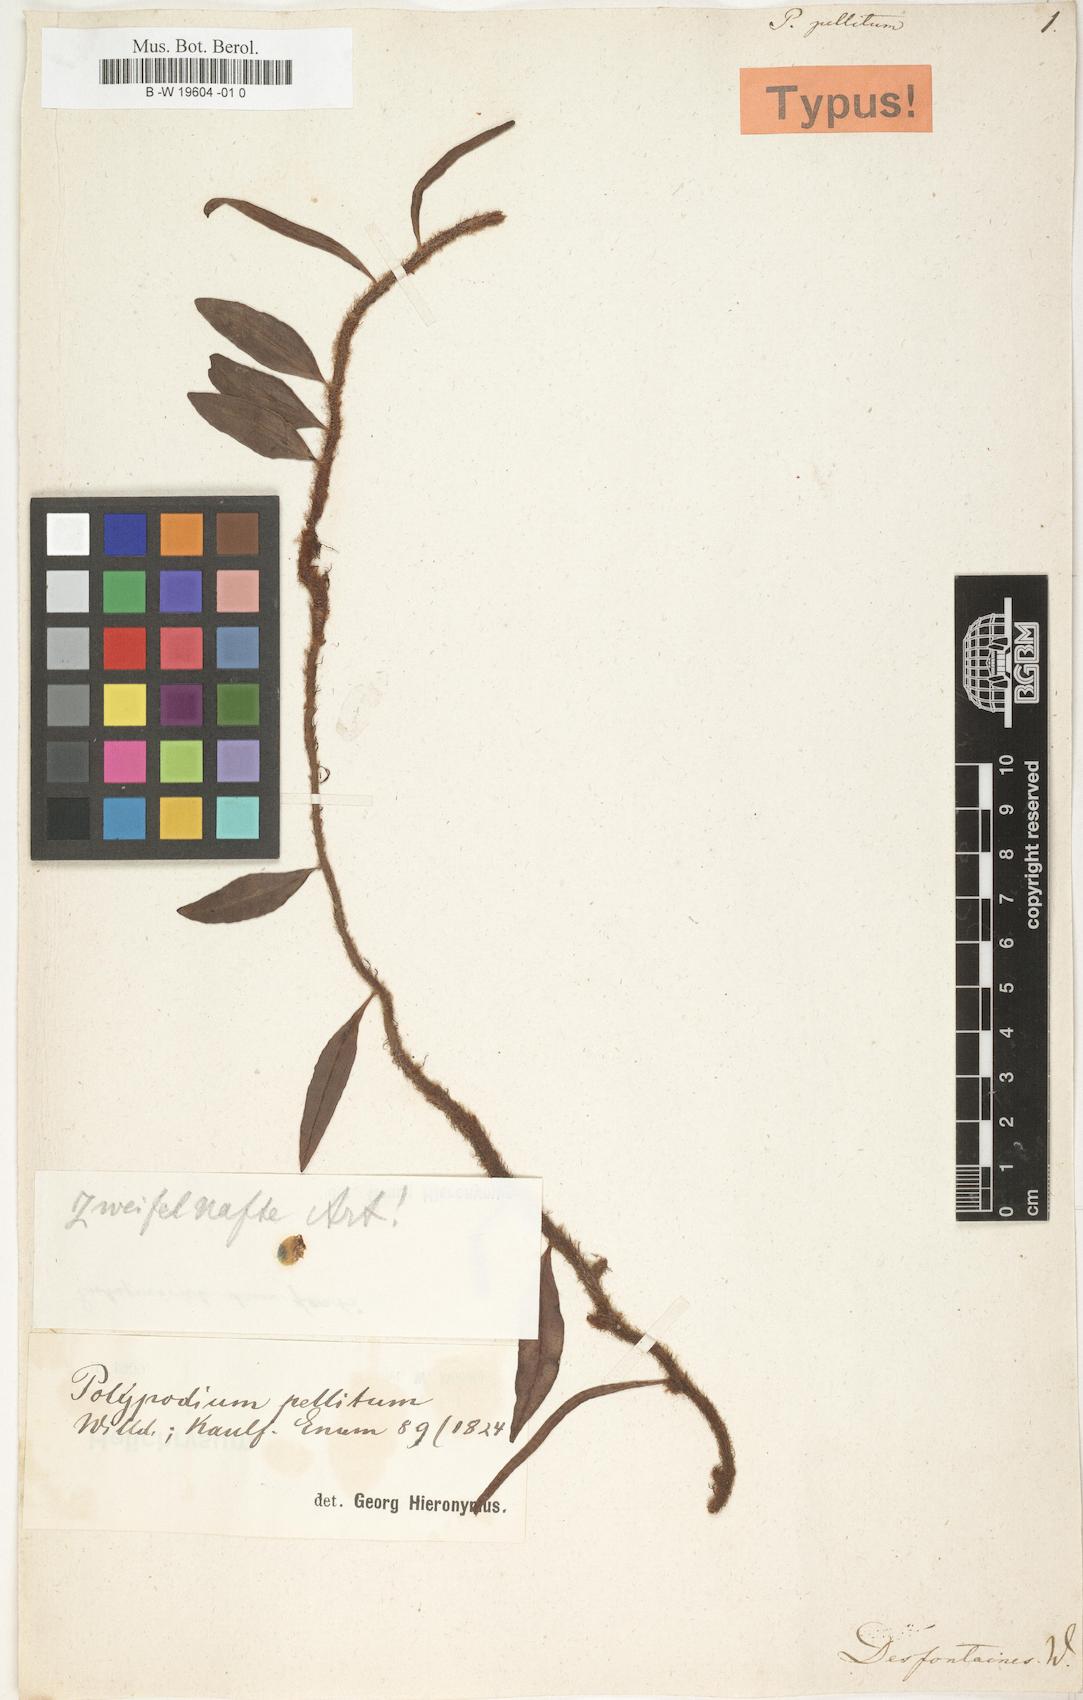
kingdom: Plantae
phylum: Tracheophyta
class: Polypodiopsida
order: Polypodiales
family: Polypodiaceae
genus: Microgramma
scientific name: Microgramma lycopodioides
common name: Bastard catclaw
